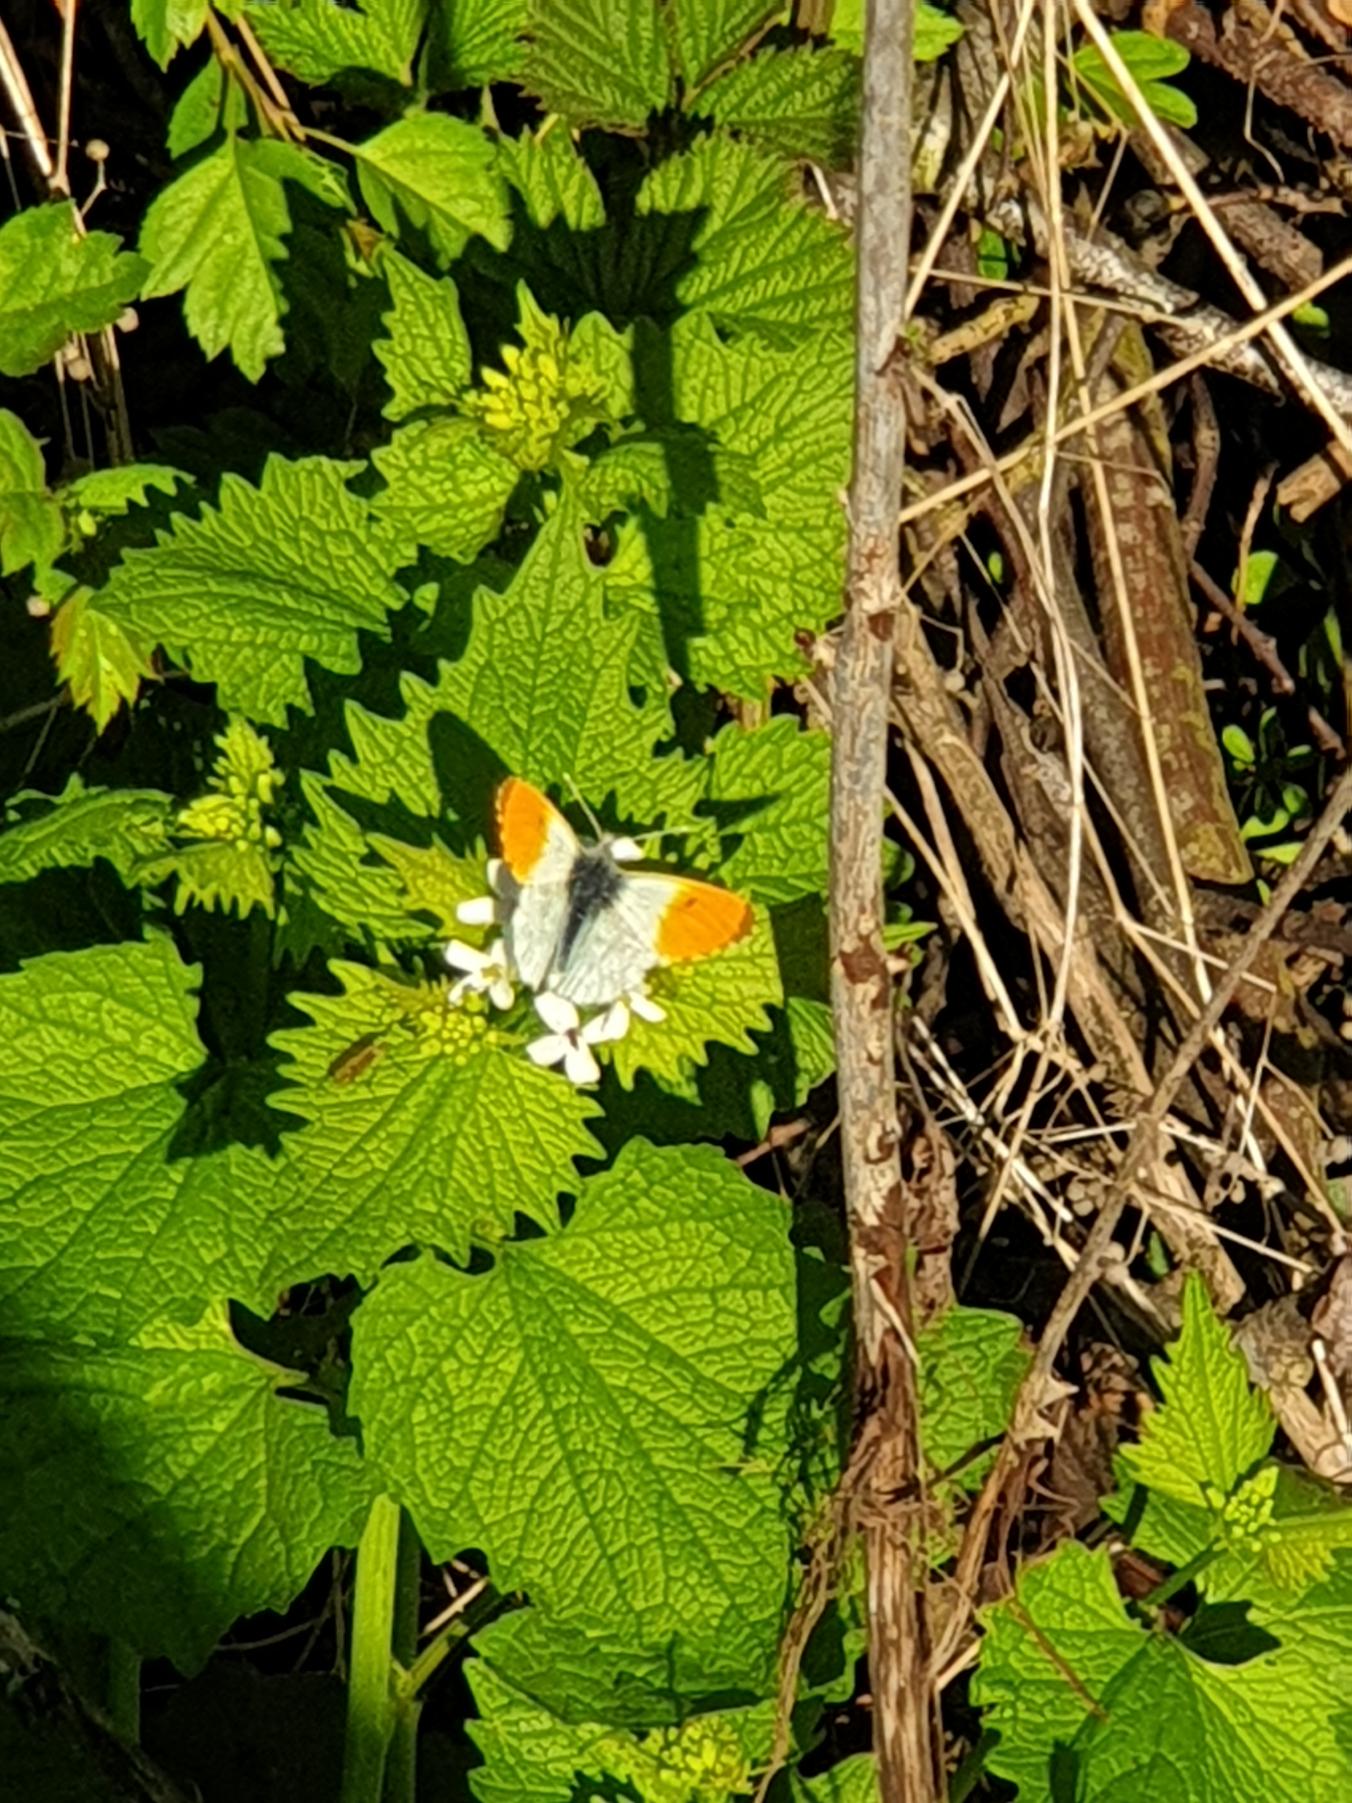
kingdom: Animalia
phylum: Arthropoda
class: Insecta
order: Lepidoptera
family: Pieridae
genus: Anthocharis
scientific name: Anthocharis cardamines
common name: Aurora
